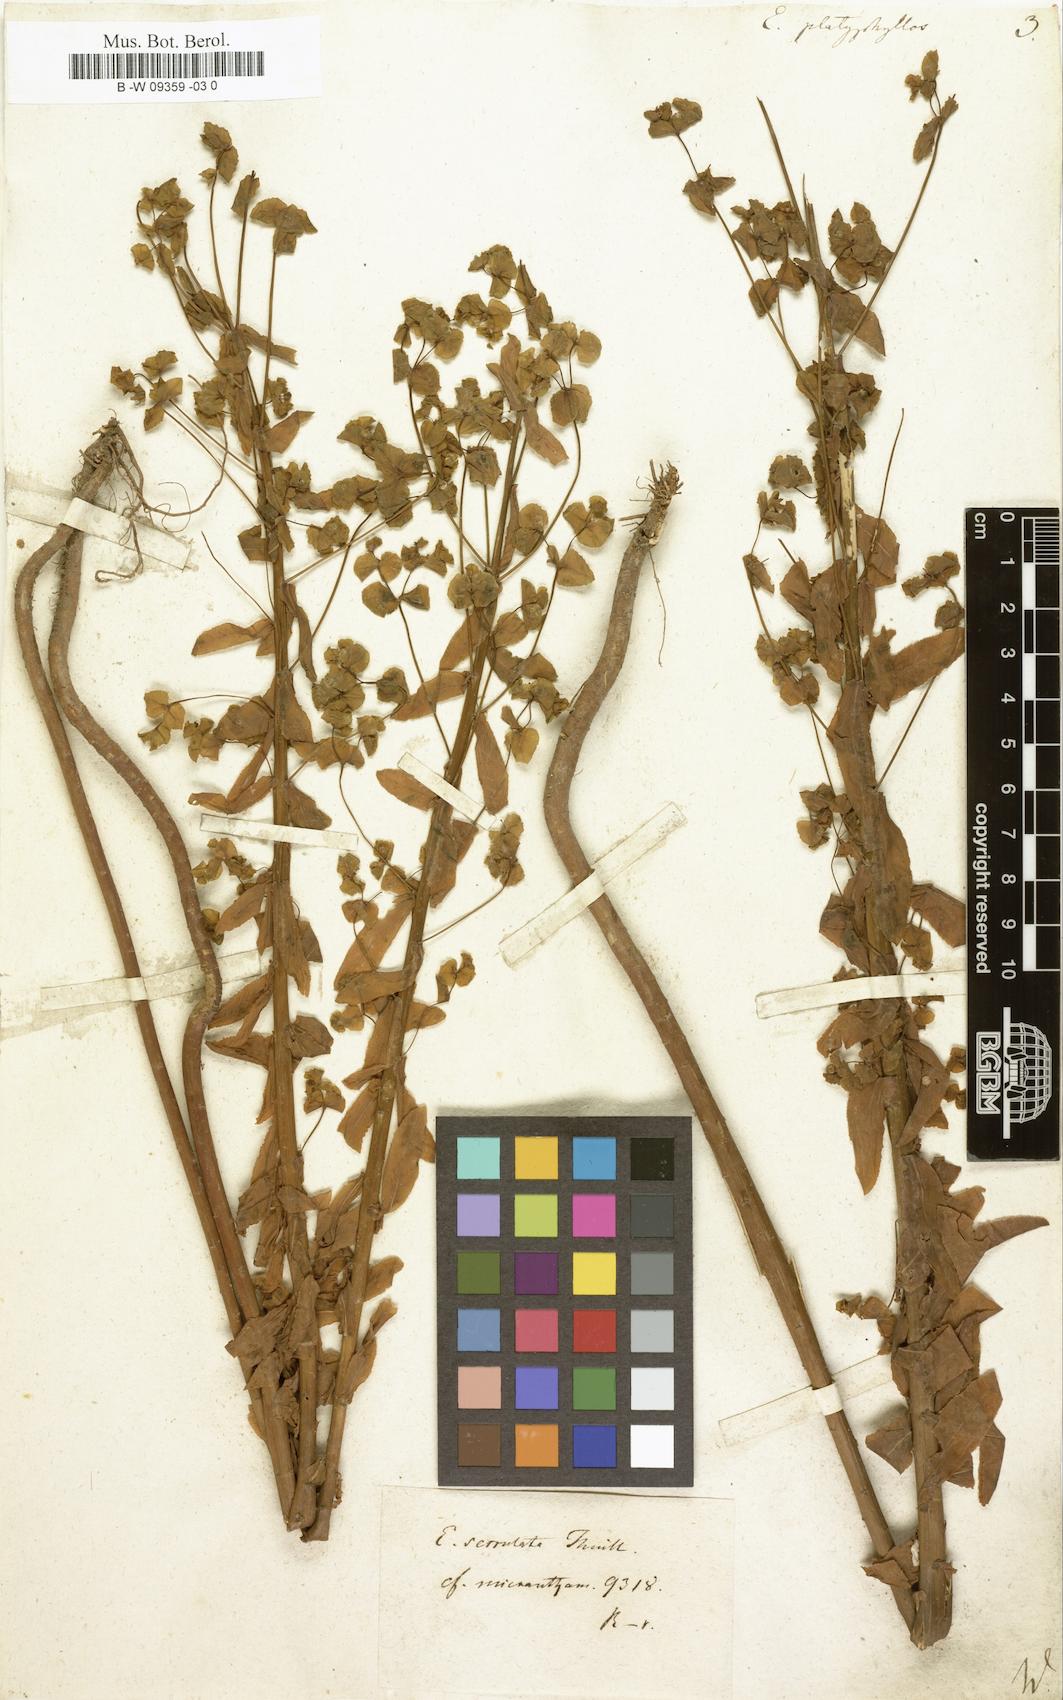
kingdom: Plantae
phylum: Tracheophyta
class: Magnoliopsida
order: Malpighiales
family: Euphorbiaceae
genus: Euphorbia
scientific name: Euphorbia platyphyllos
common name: Broad-leaved spurge
